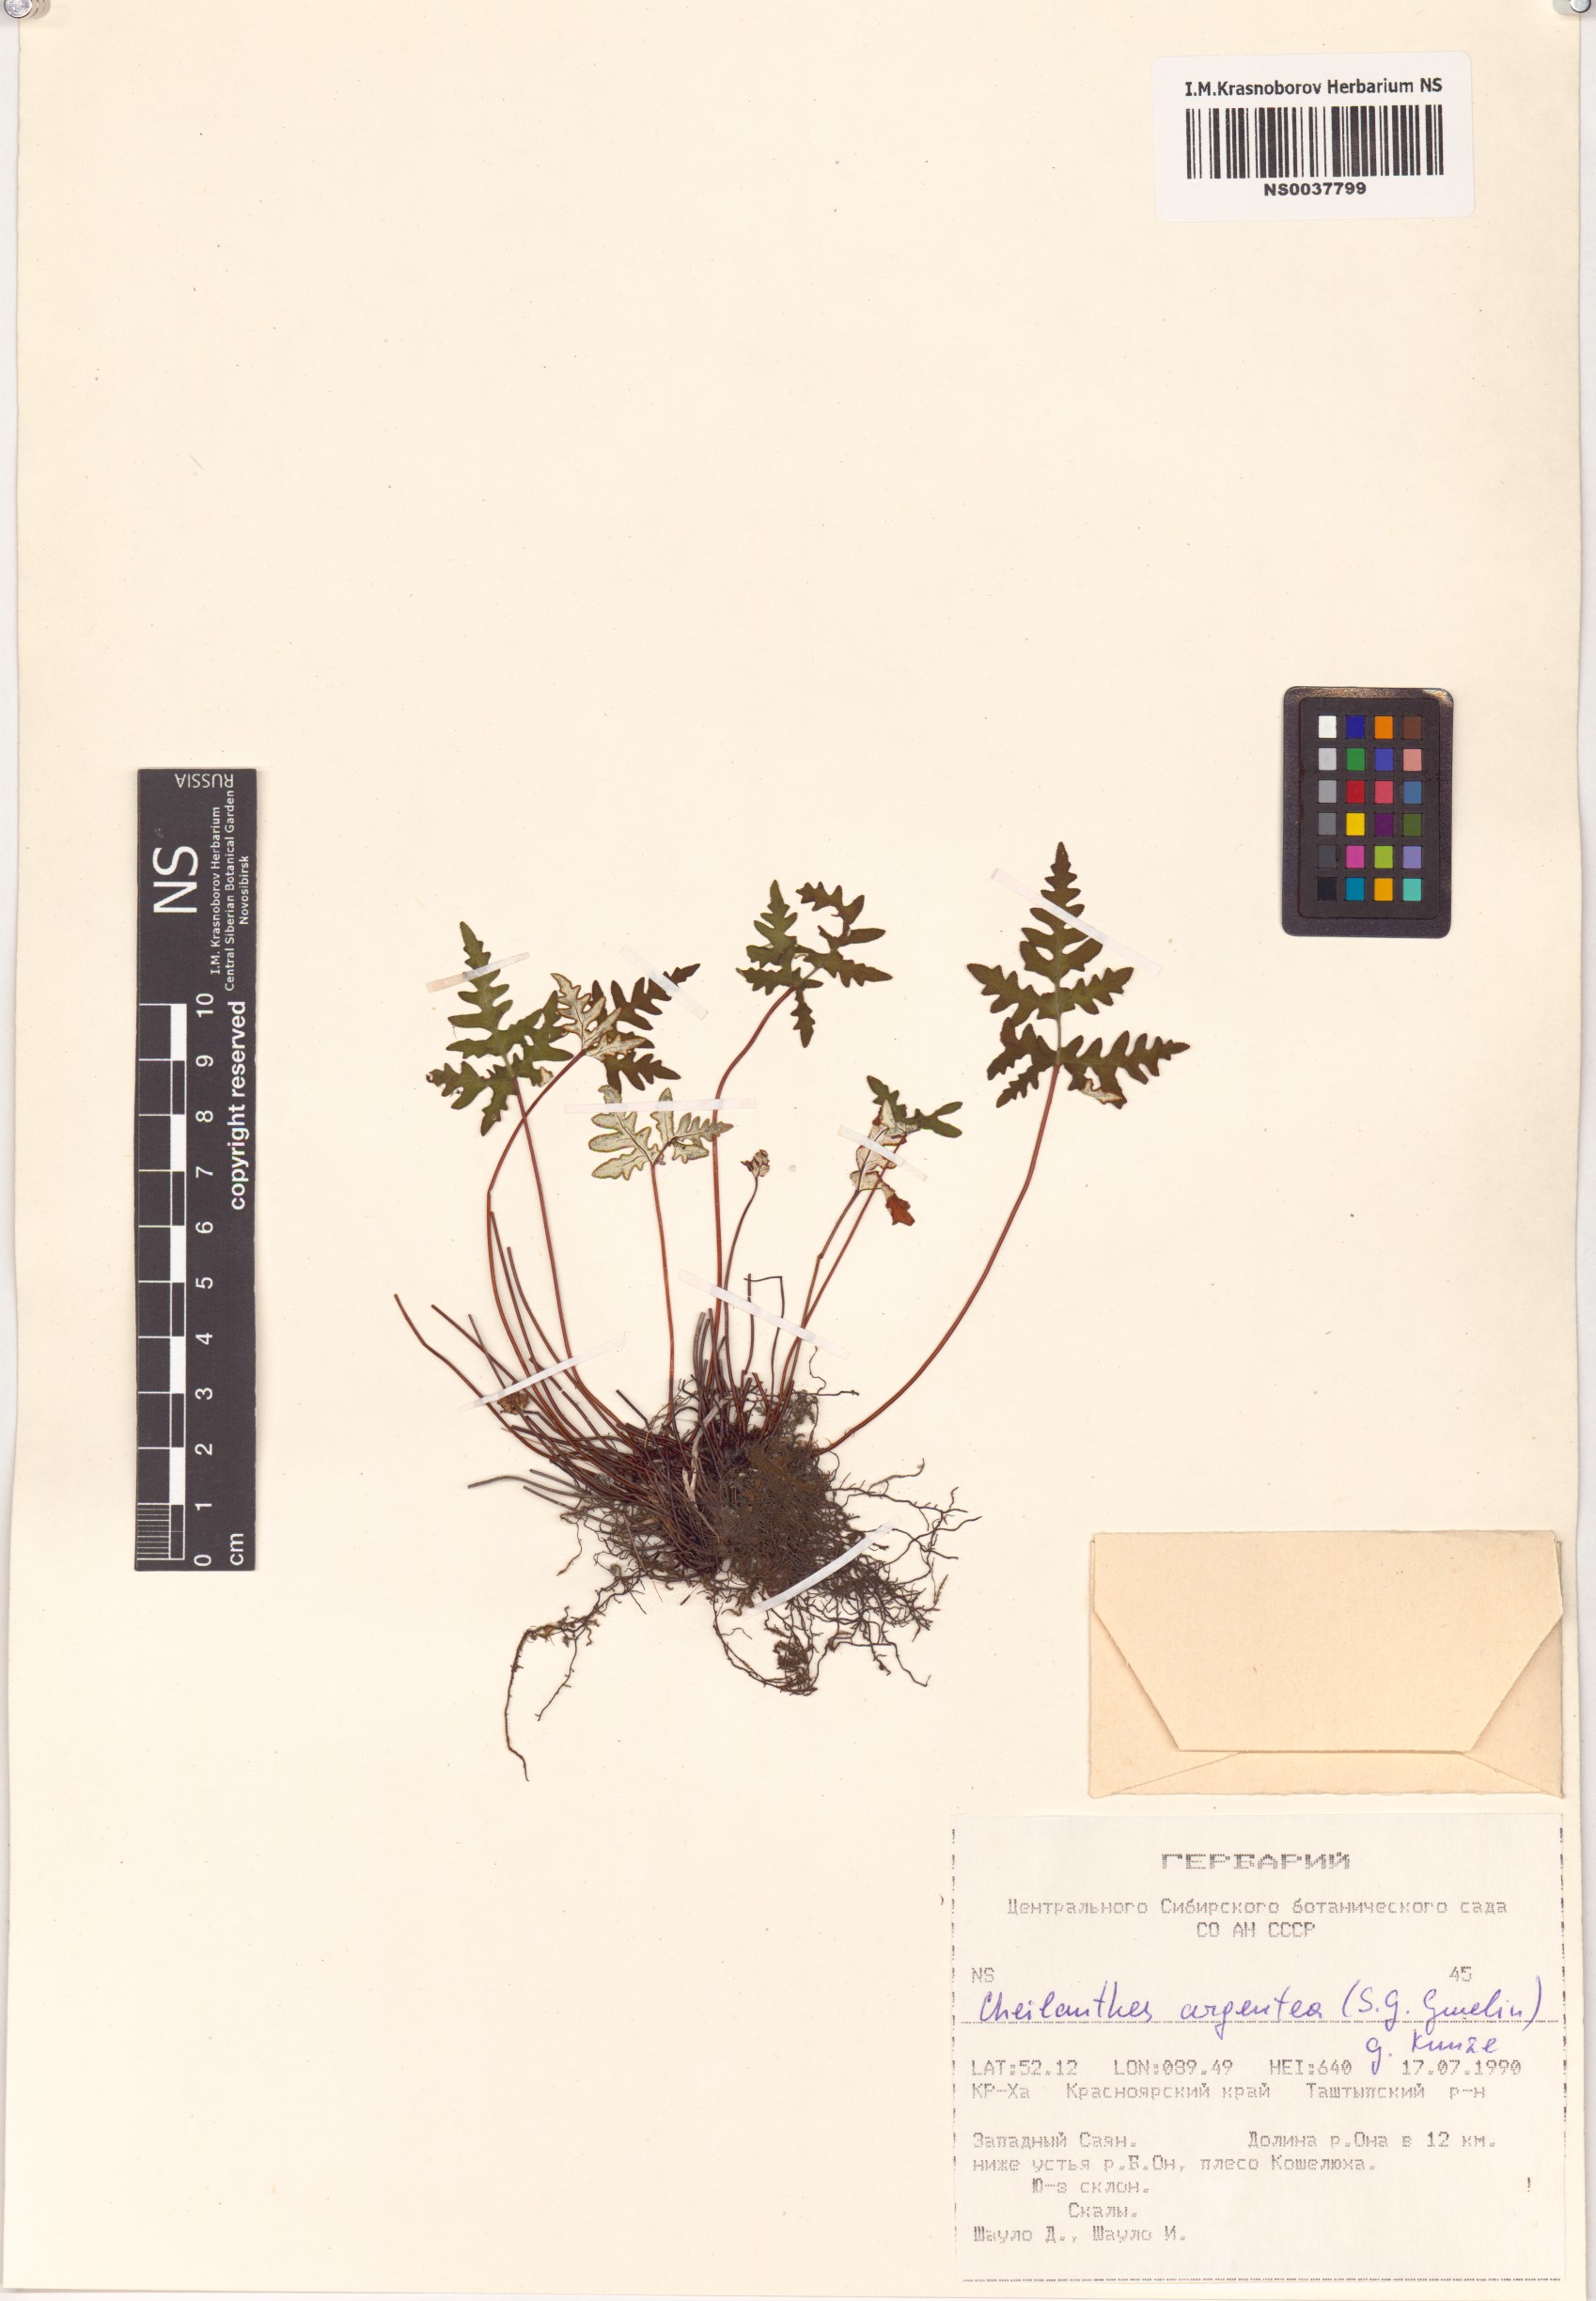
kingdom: Plantae
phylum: Tracheophyta
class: Polypodiopsida
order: Polypodiales
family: Pteridaceae
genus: Aleuritopteris
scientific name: Aleuritopteris argentea
